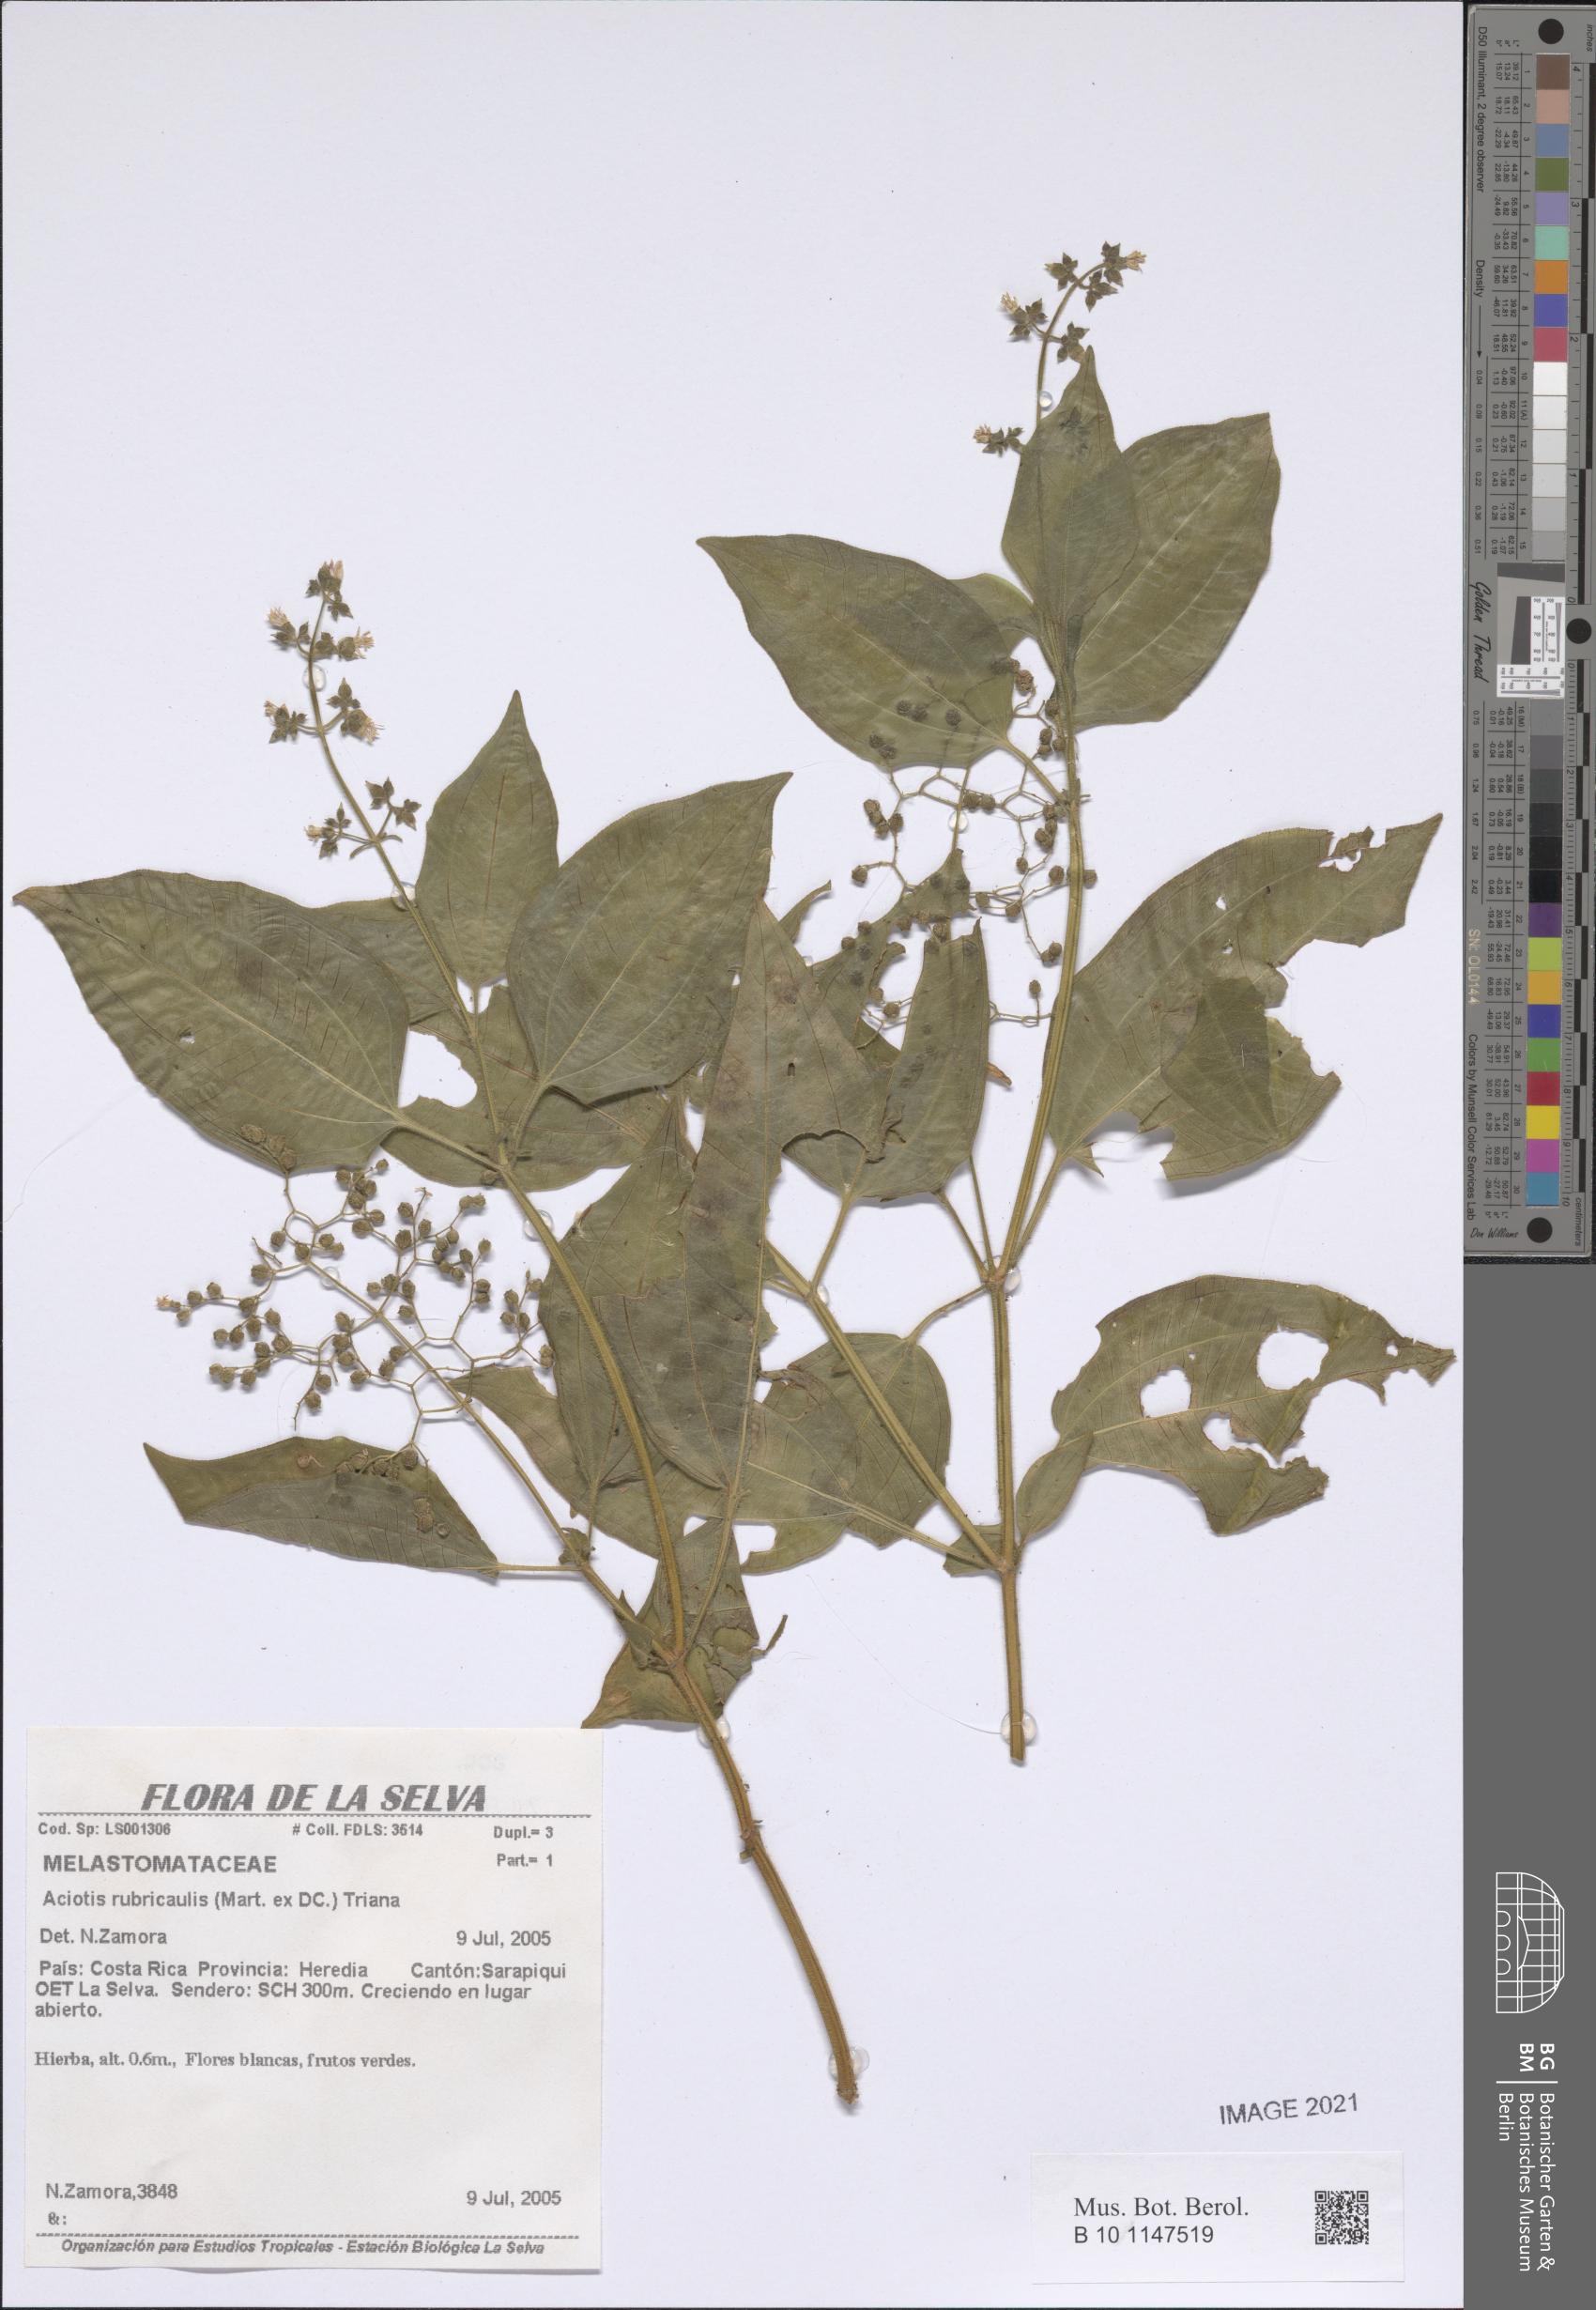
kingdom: Plantae
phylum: Tracheophyta
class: Magnoliopsida
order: Myrtales
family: Melastomataceae
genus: Aciotis
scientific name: Aciotis rubricaulis
